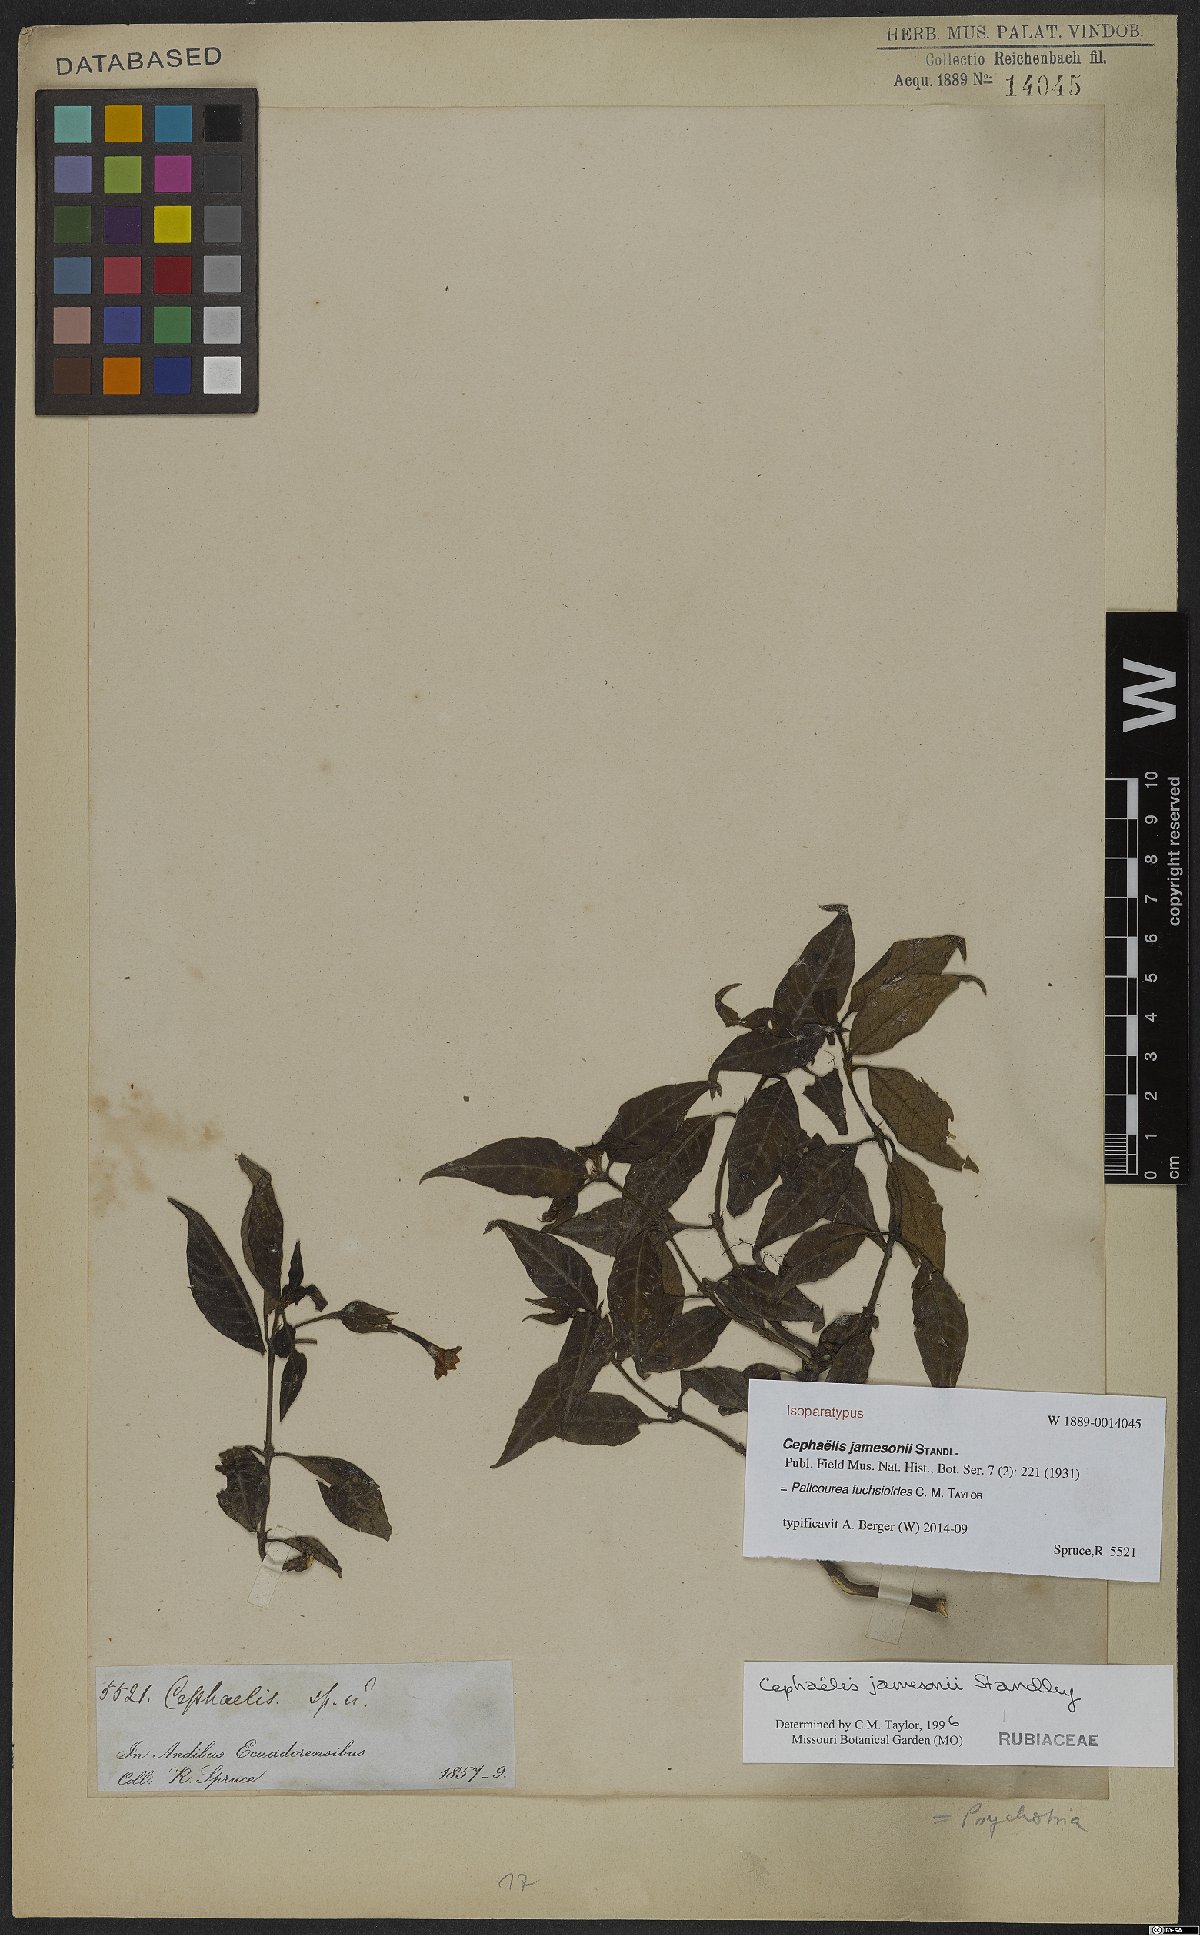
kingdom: Plantae
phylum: Tracheophyta
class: Magnoliopsida
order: Gentianales
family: Rubiaceae
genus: Palicourea
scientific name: Palicourea fuchsioides
